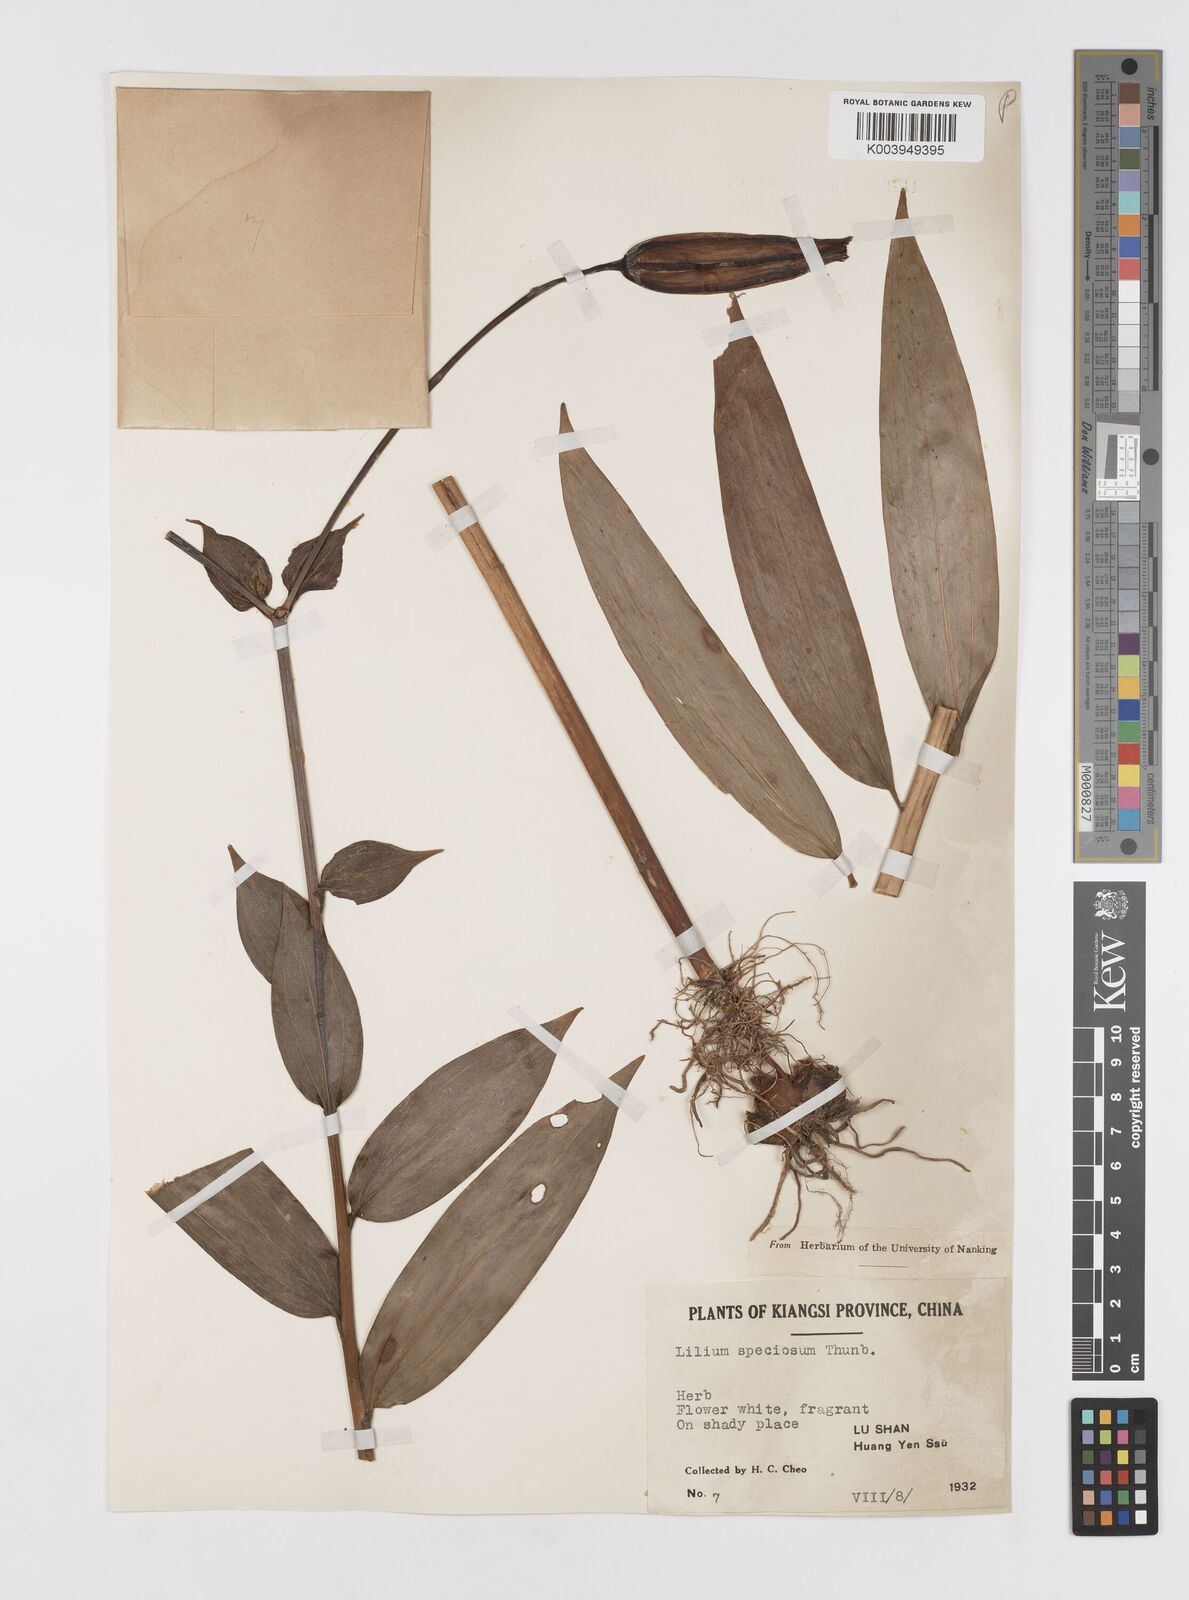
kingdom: Plantae
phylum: Tracheophyta
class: Liliopsida
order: Liliales
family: Liliaceae
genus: Lilium
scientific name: Lilium speciosum
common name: Japanese lily
